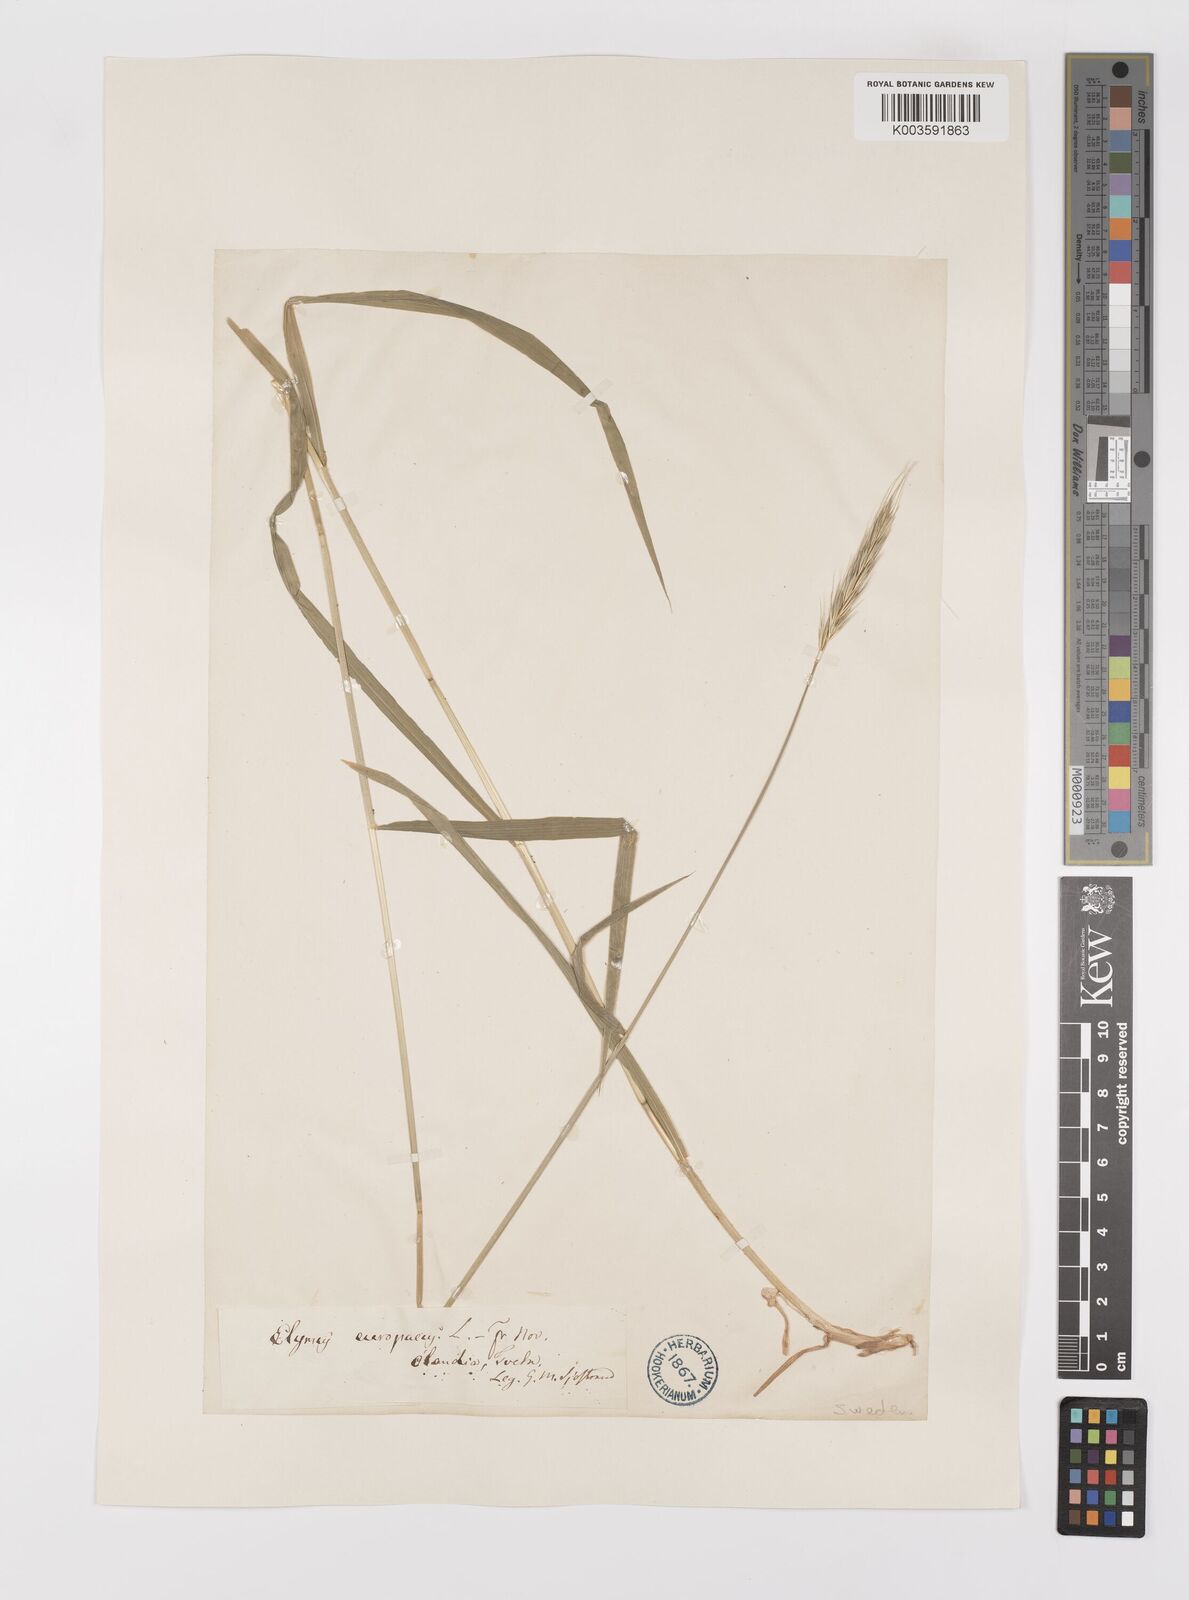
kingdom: Plantae
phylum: Tracheophyta
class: Liliopsida
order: Poales
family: Poaceae
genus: Hordelymus
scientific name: Hordelymus europaeus
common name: Wood-barley
